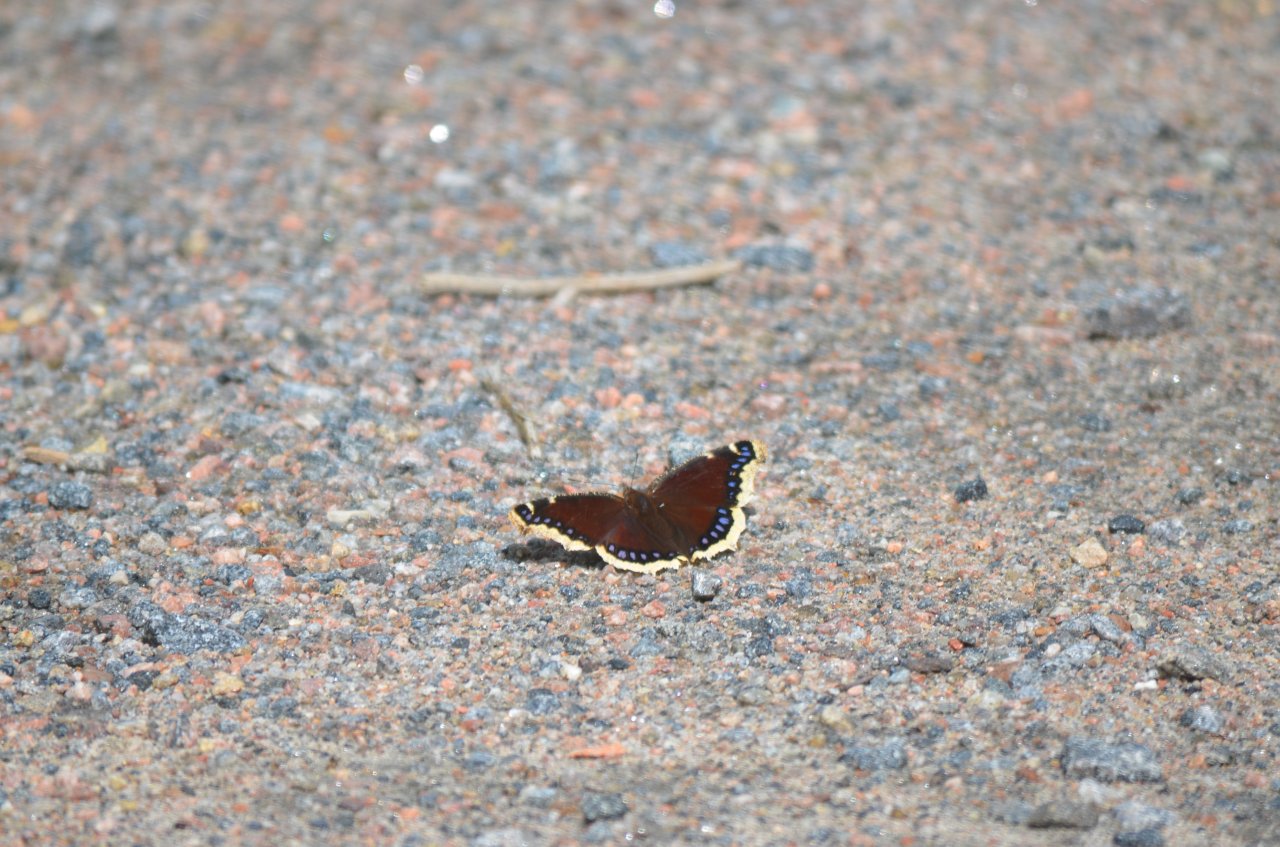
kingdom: Animalia
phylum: Arthropoda
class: Insecta
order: Lepidoptera
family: Nymphalidae
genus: Nymphalis
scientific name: Nymphalis antiopa
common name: Mourning Cloak
